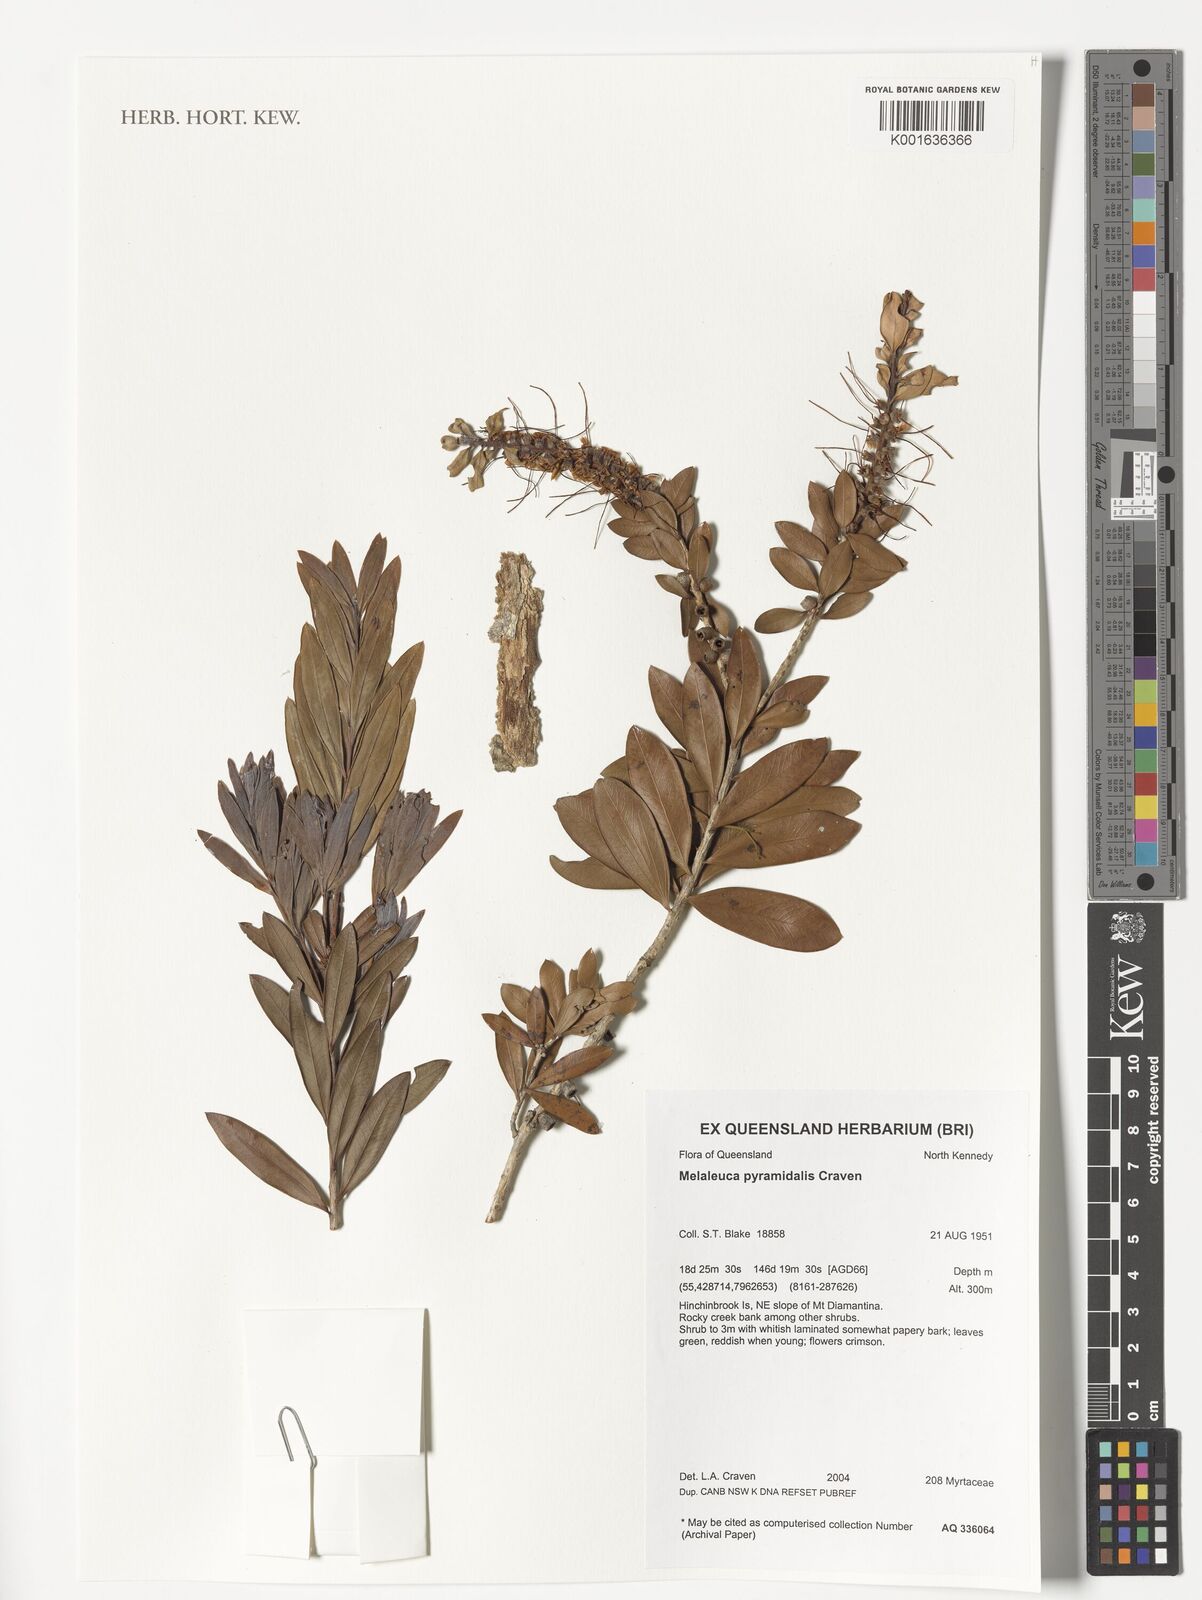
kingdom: Plantae
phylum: Tracheophyta
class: Magnoliopsida
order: Myrtales
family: Myrtaceae
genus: Callistemon
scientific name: Callistemon pyramidalis
